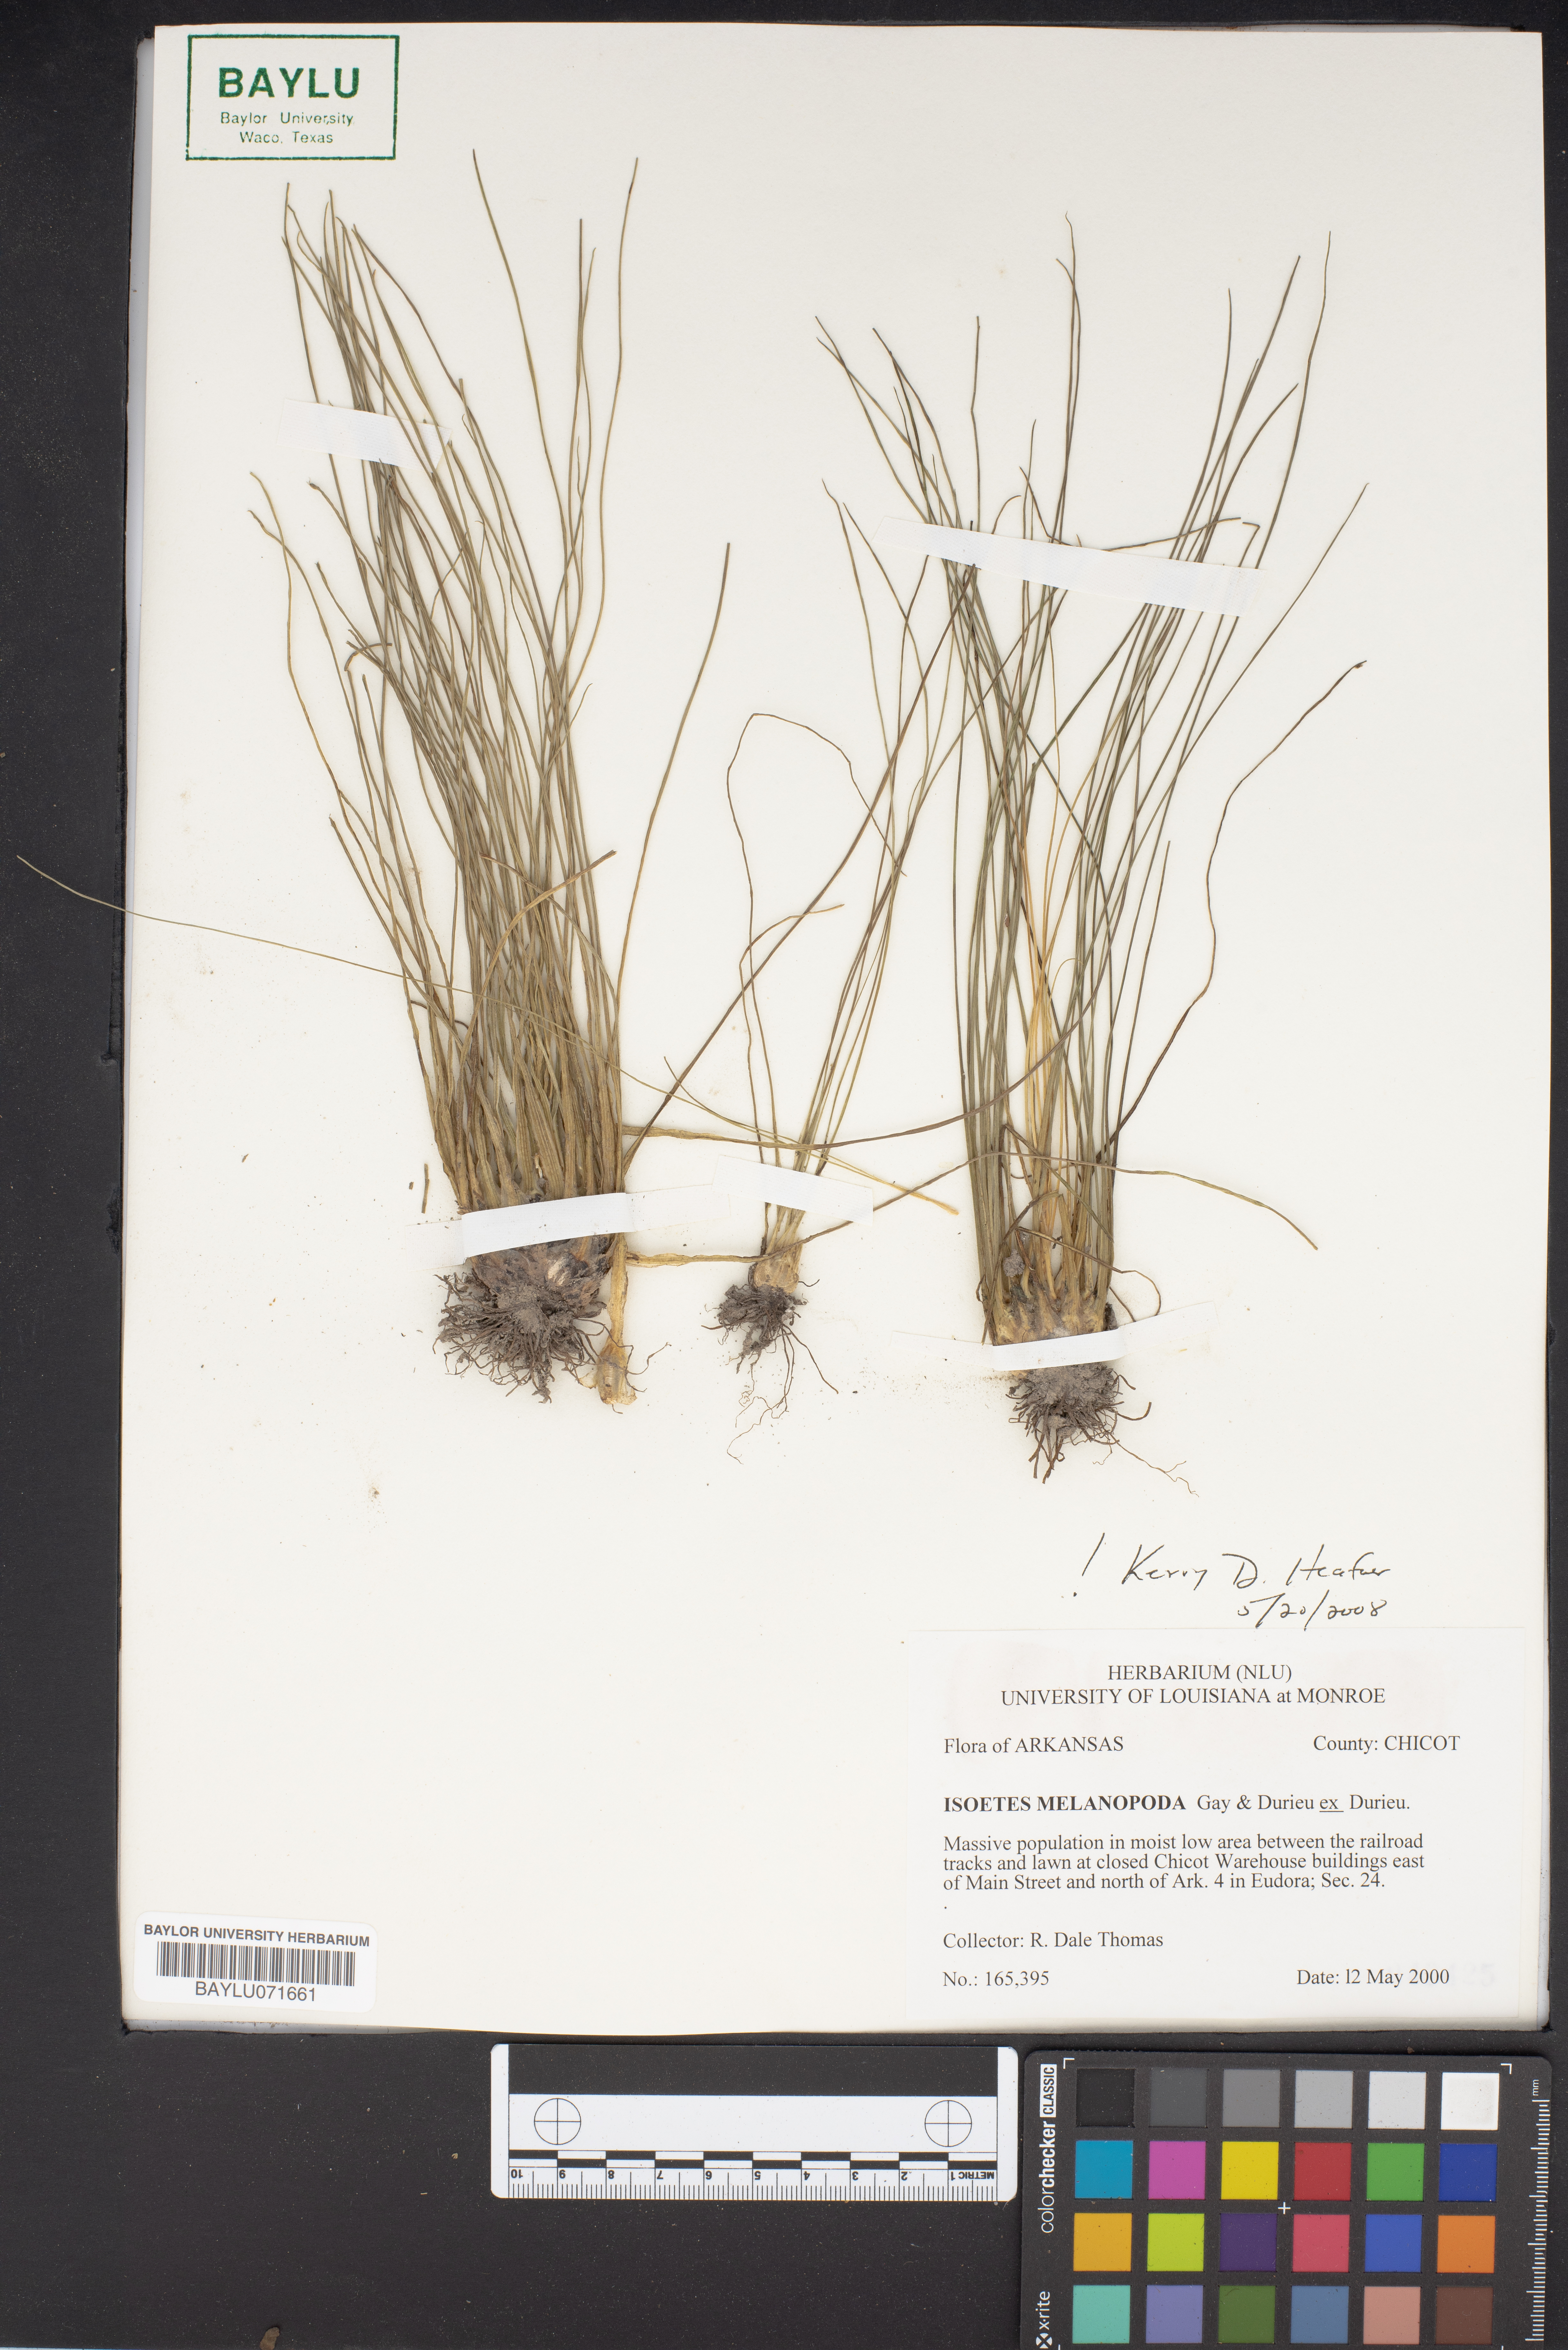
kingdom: Plantae
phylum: Tracheophyta
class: Lycopodiopsida
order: Isoetales
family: Isoetaceae
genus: Isoetes
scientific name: Isoetes melanopoda
